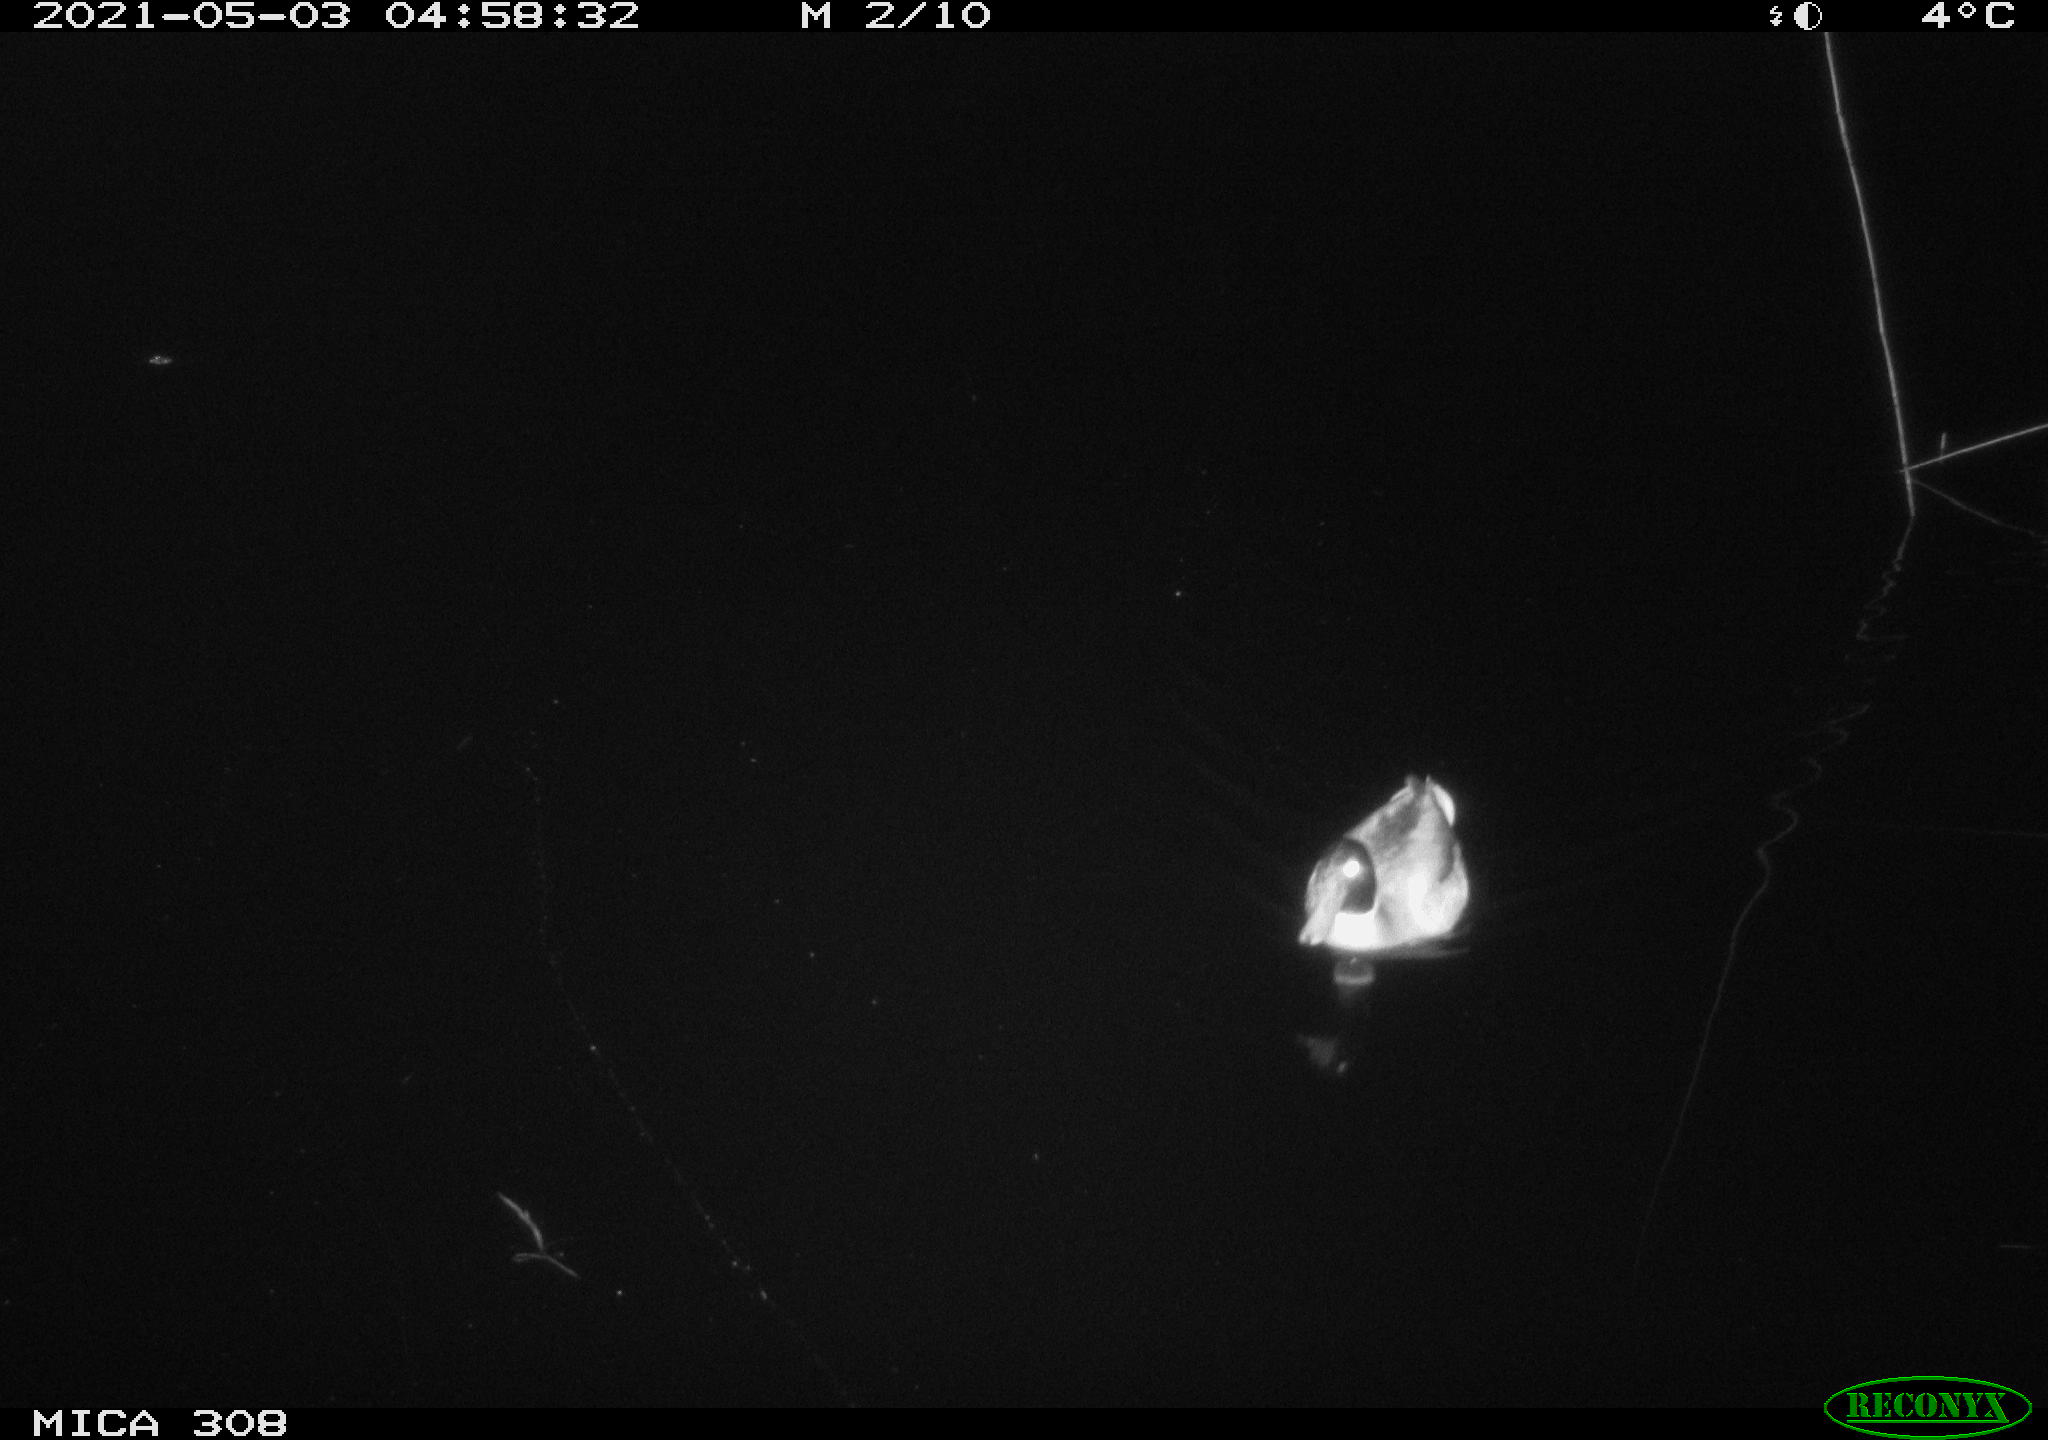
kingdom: Animalia
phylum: Chordata
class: Aves
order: Anseriformes
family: Anatidae
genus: Anas
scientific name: Anas platyrhynchos
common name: Mallard
